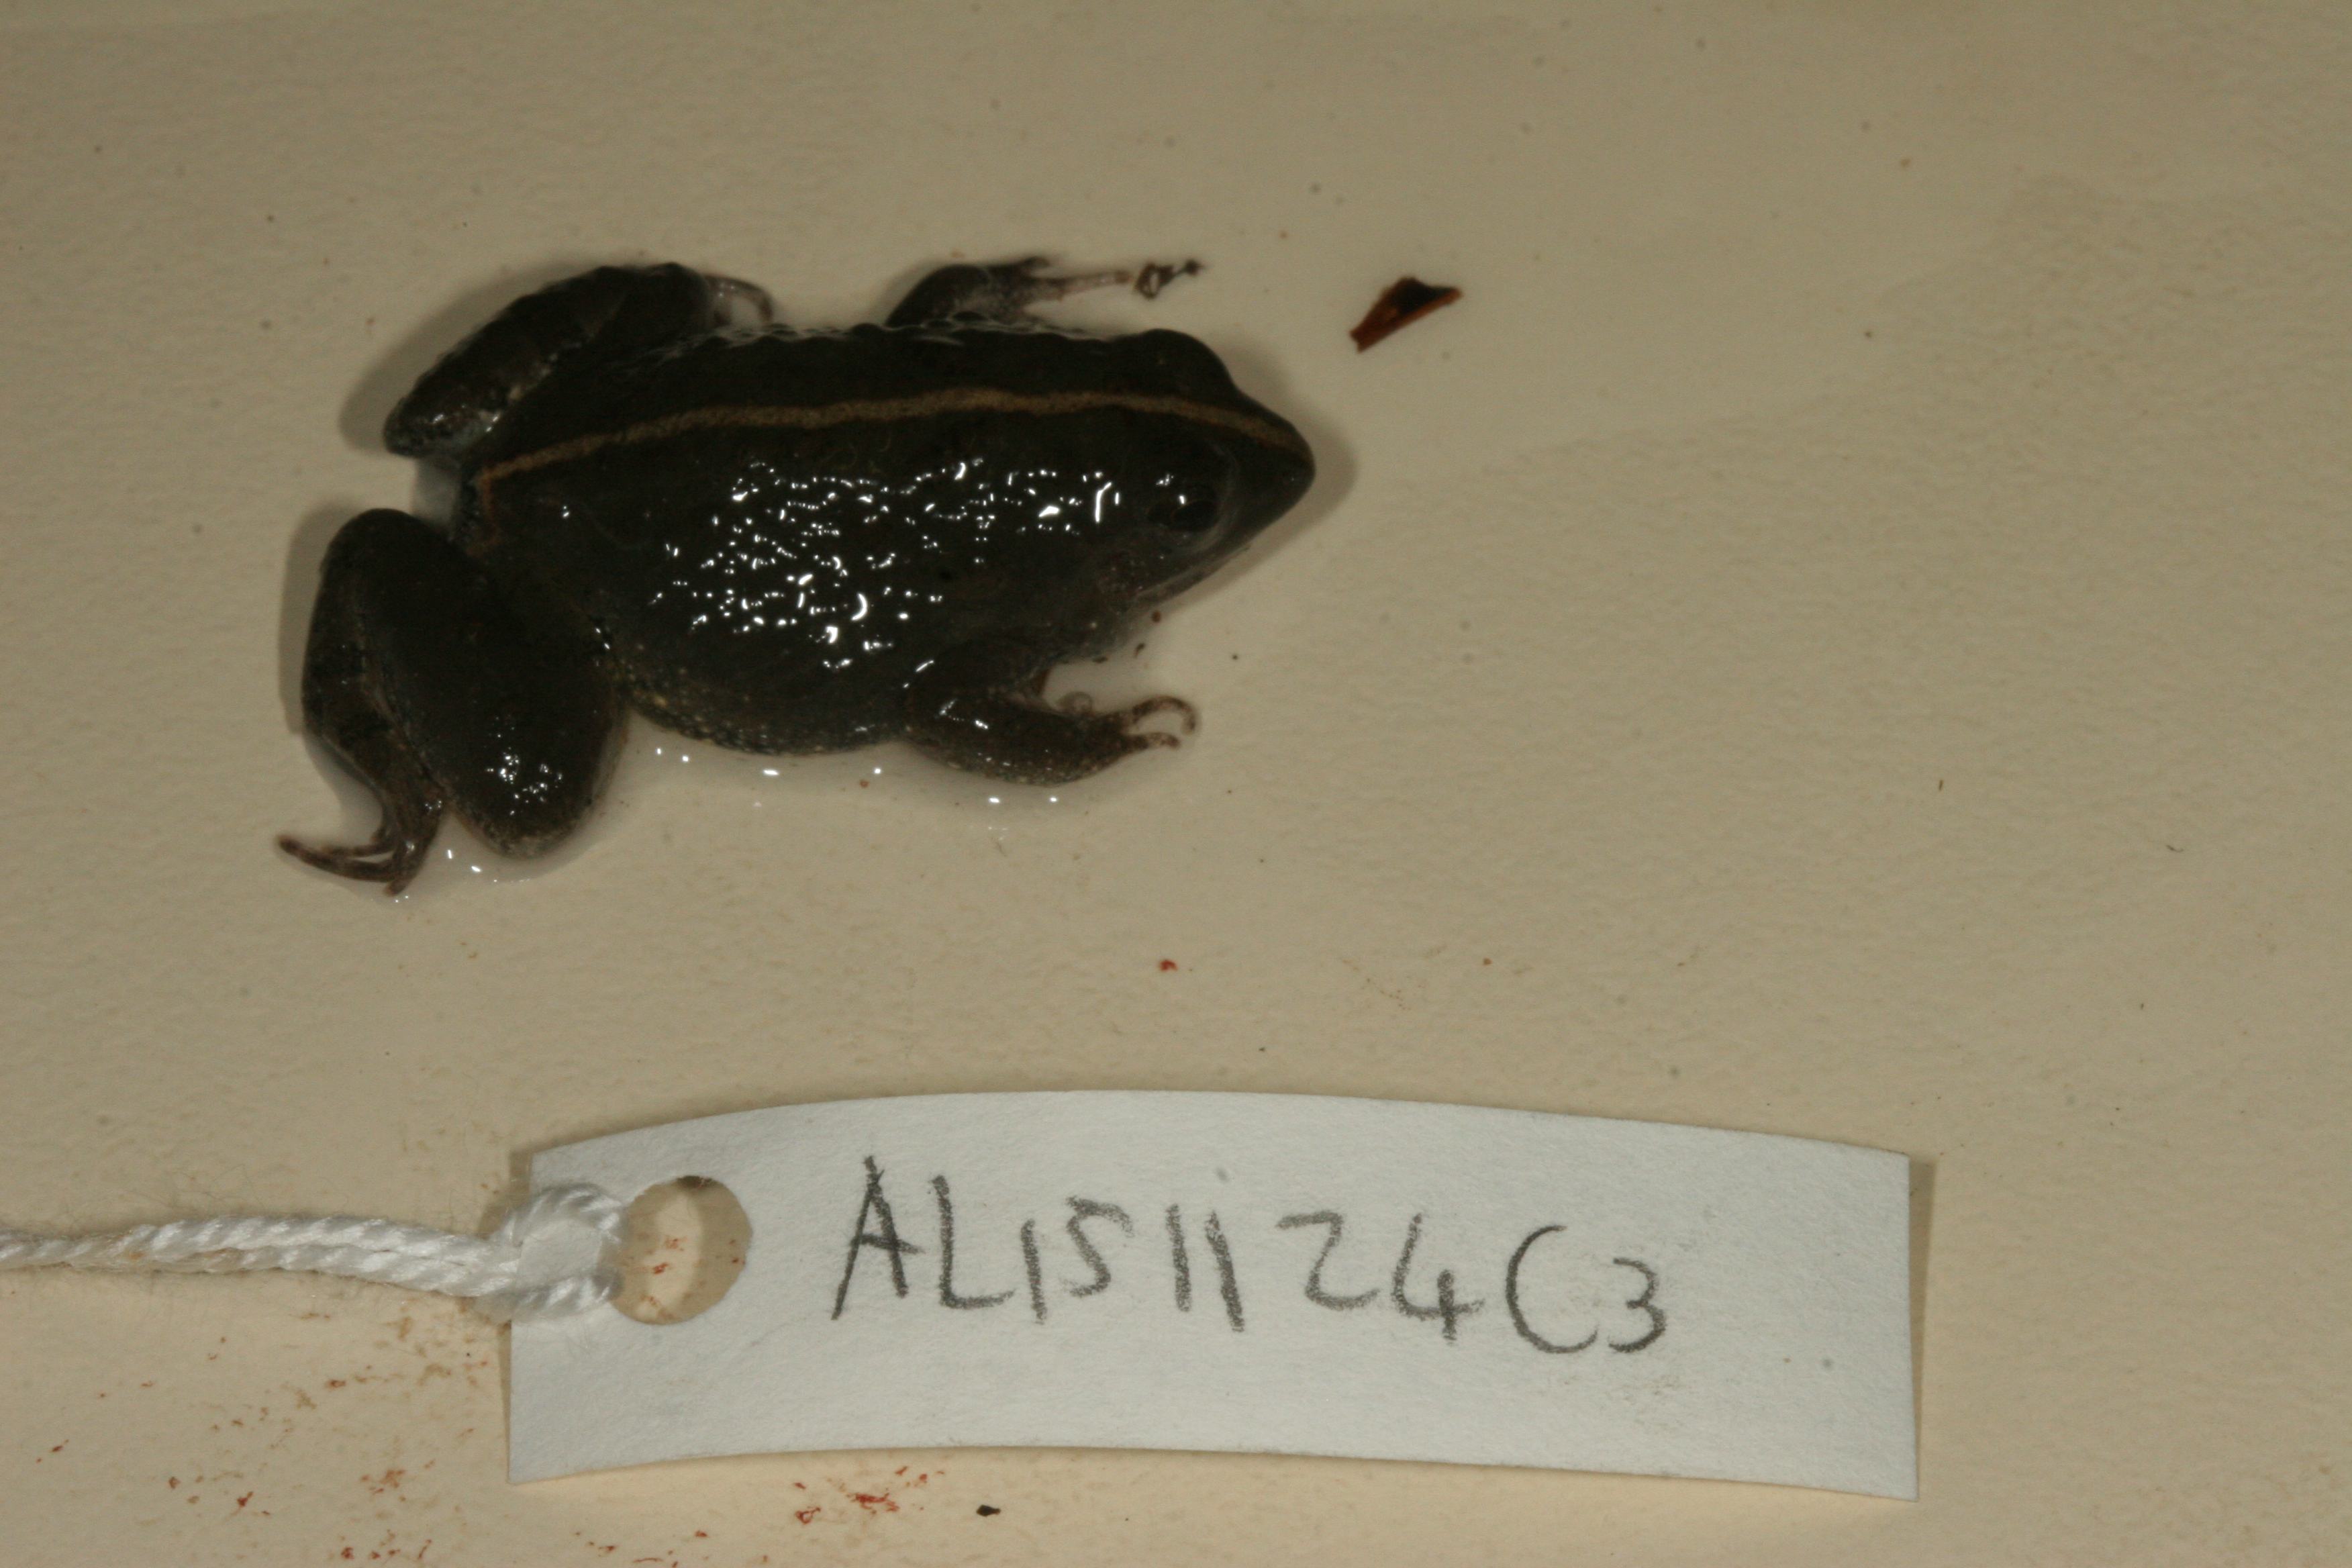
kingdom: Animalia
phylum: Chordata
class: Amphibia
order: Anura
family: Phrynobatrachidae
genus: Phrynobatrachus
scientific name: Phrynobatrachus natalensis
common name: Snoring puddle frog
